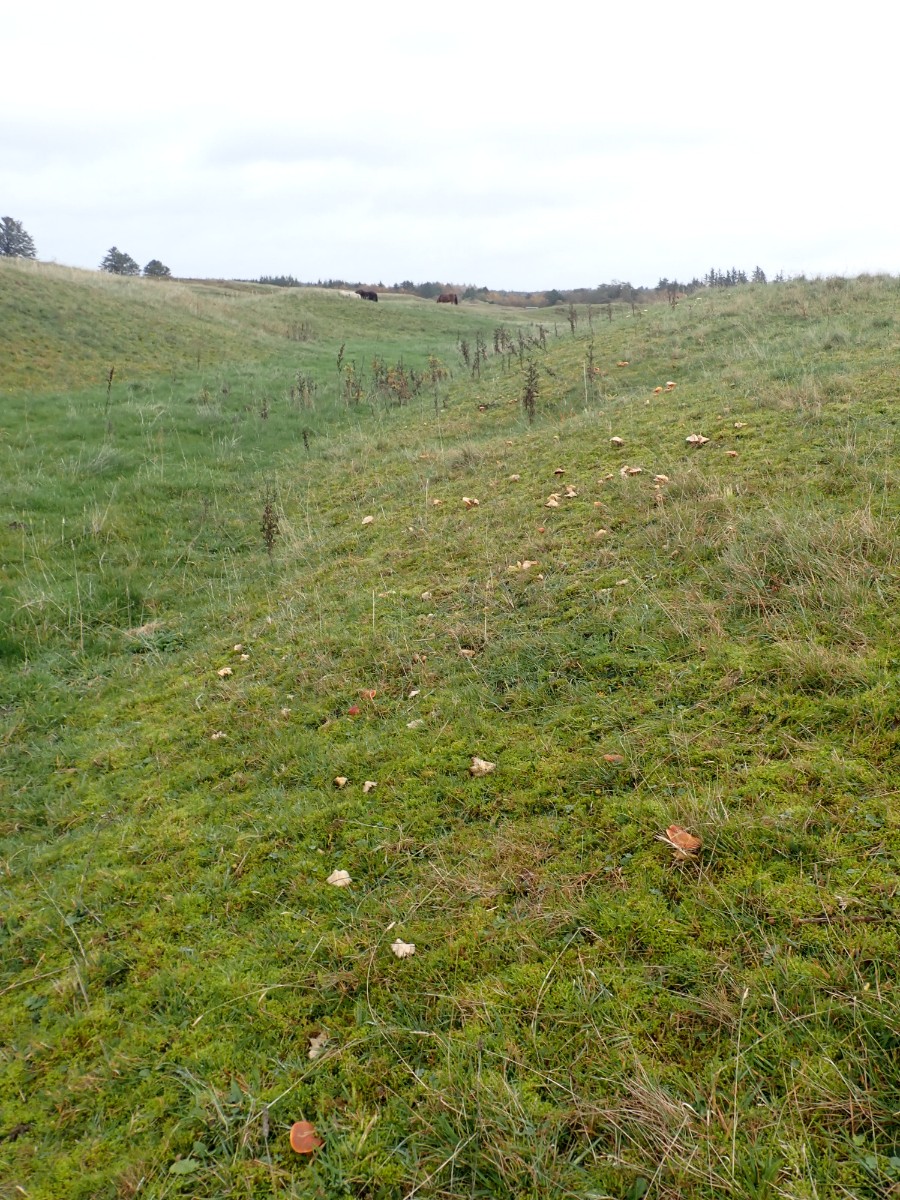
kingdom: Fungi
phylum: Basidiomycota
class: Agaricomycetes
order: Agaricales
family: Hygrophoraceae
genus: Hygrocybe
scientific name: Hygrocybe punicea
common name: skarlagen-vokshat
